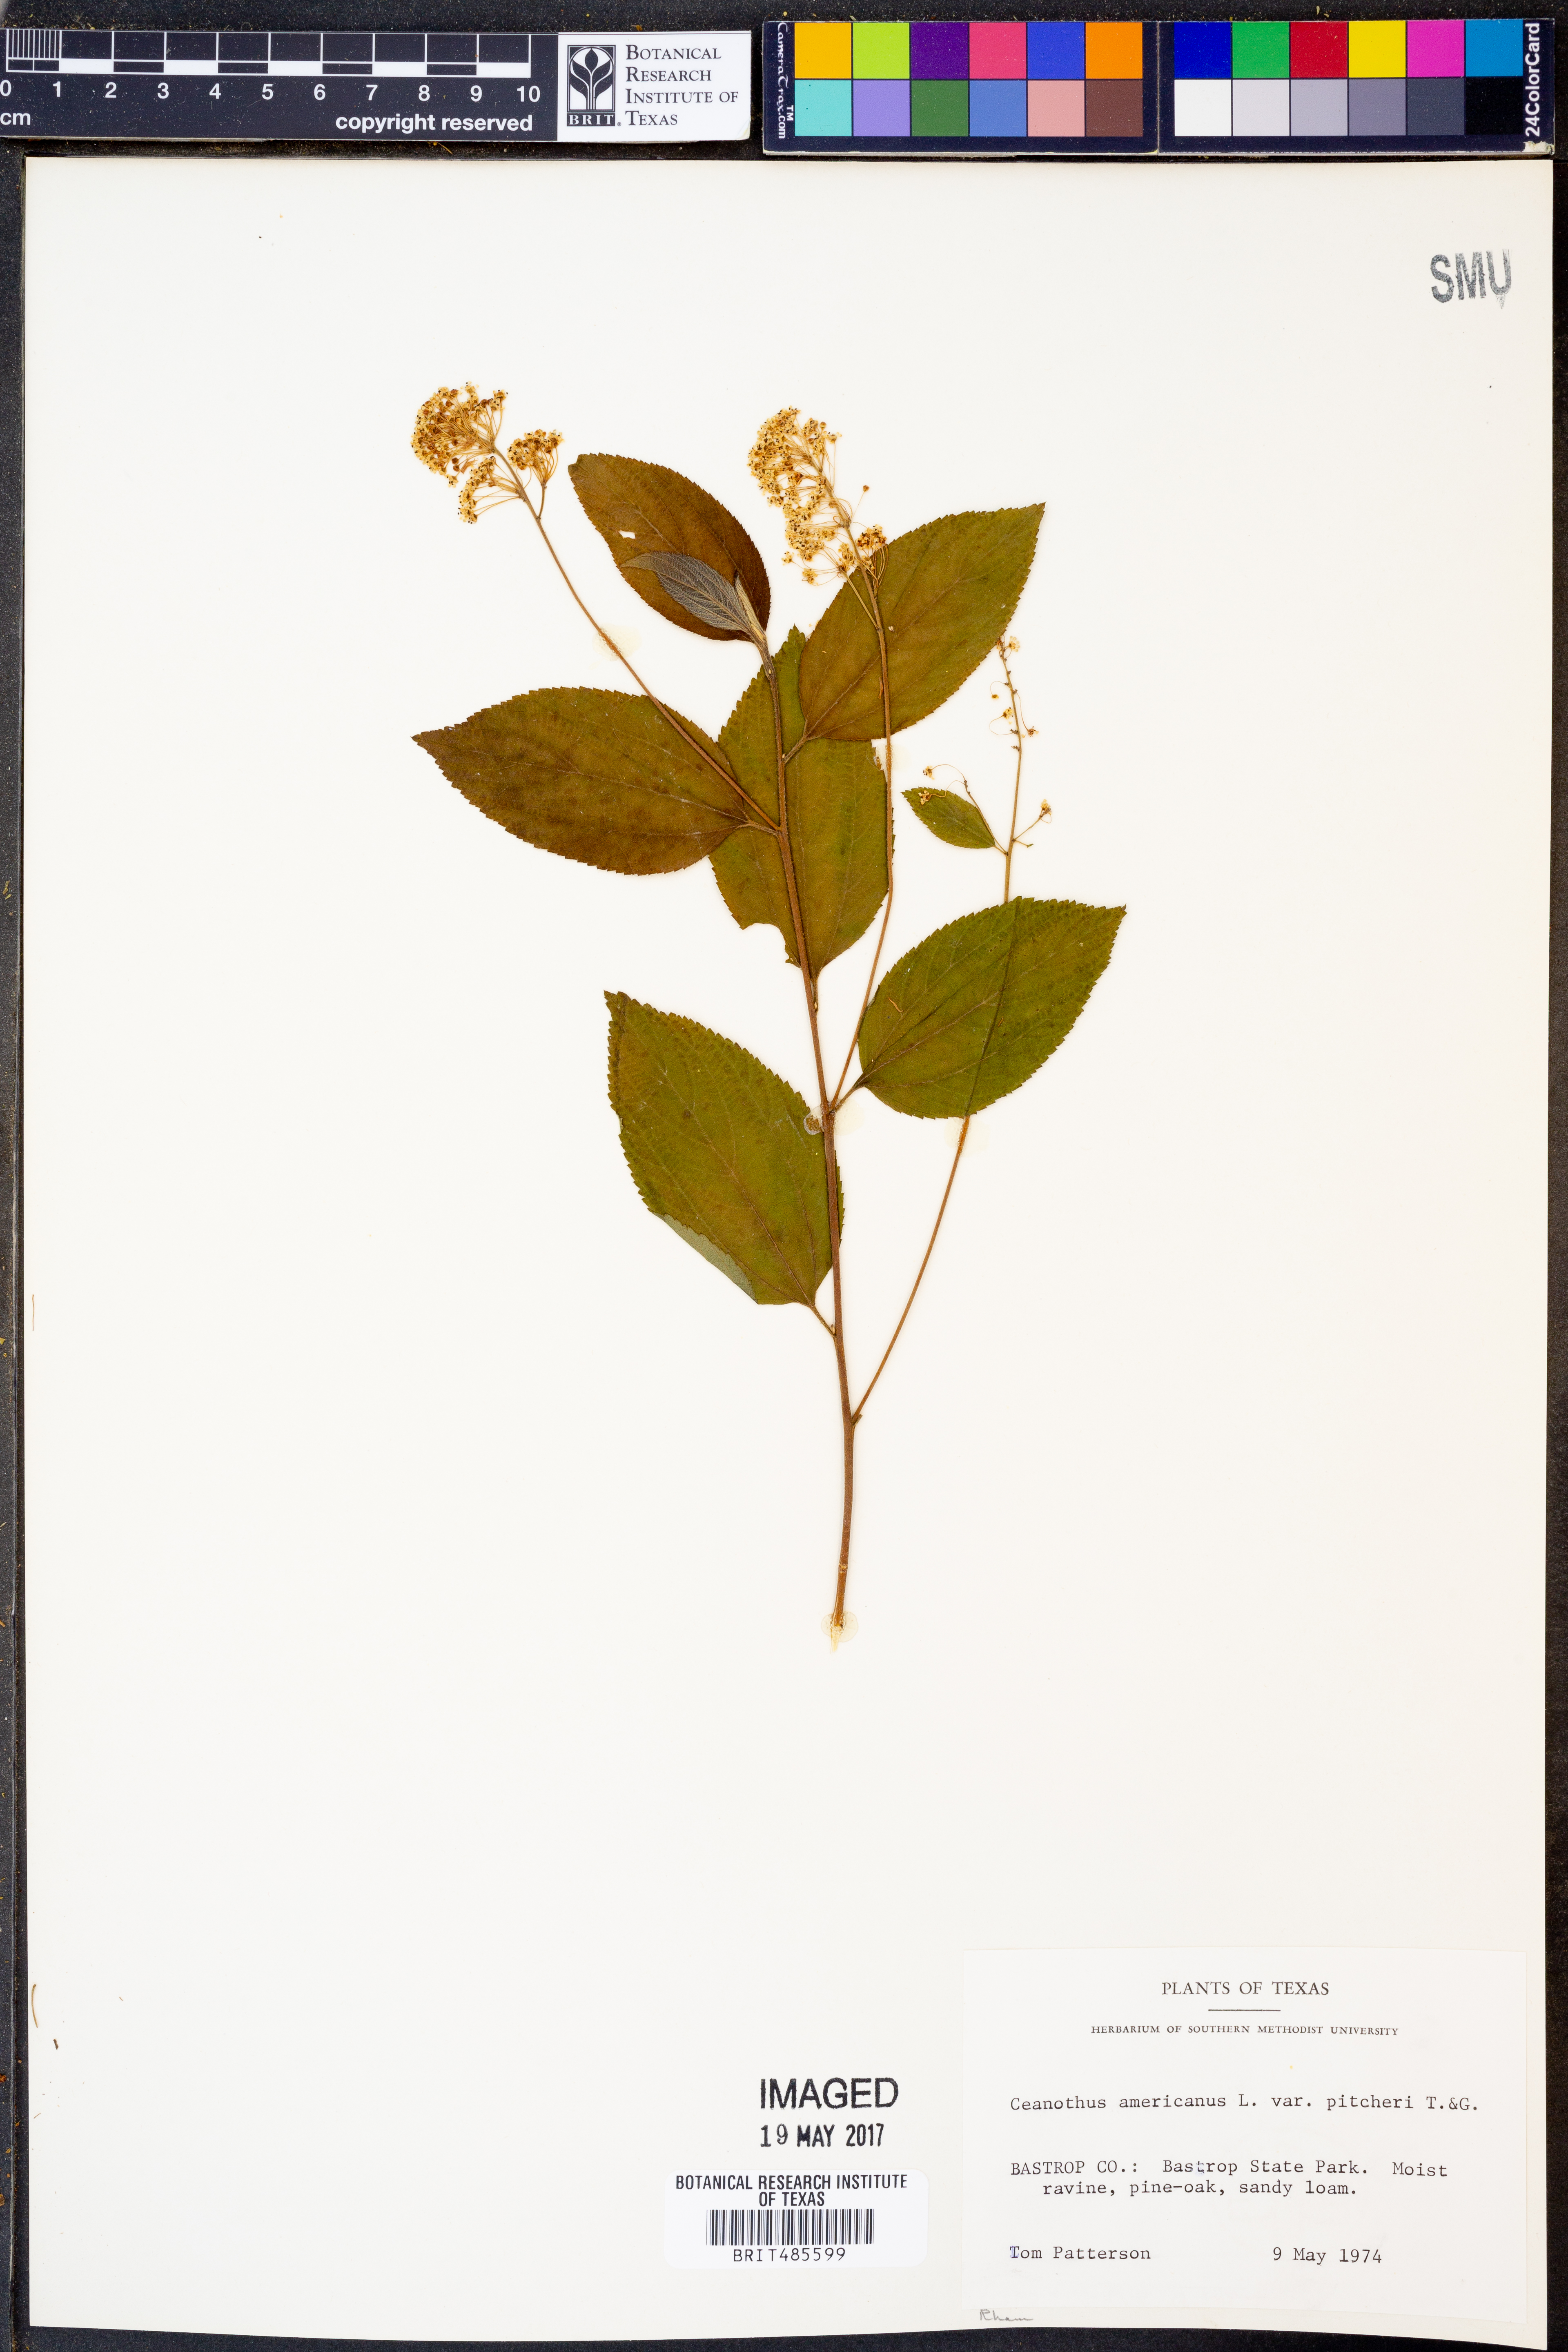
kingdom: Plantae
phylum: Tracheophyta
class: Magnoliopsida
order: Rosales
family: Rhamnaceae
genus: Ceanothus
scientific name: Ceanothus americanus
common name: Redroot
